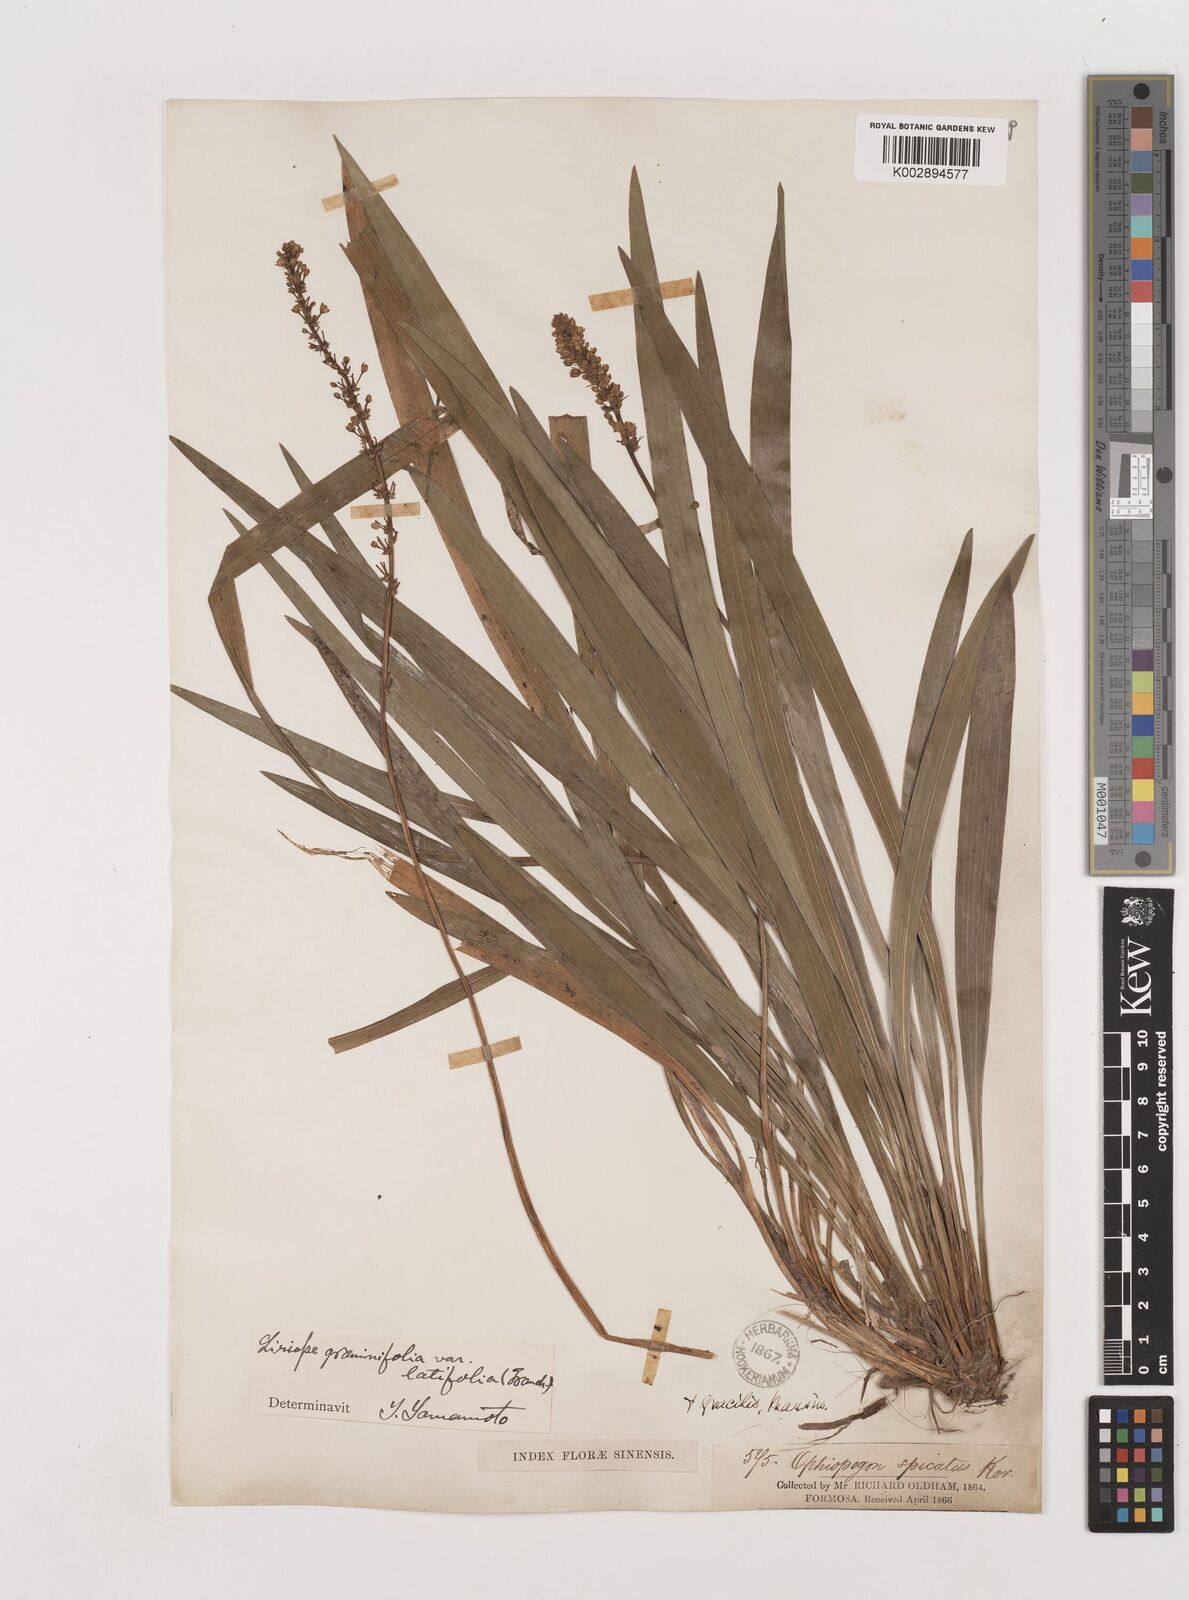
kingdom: Plantae
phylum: Tracheophyta
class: Liliopsida
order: Asparagales
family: Asparagaceae
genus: Liriope
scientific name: Liriope muscari
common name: Big blue lilyturf
